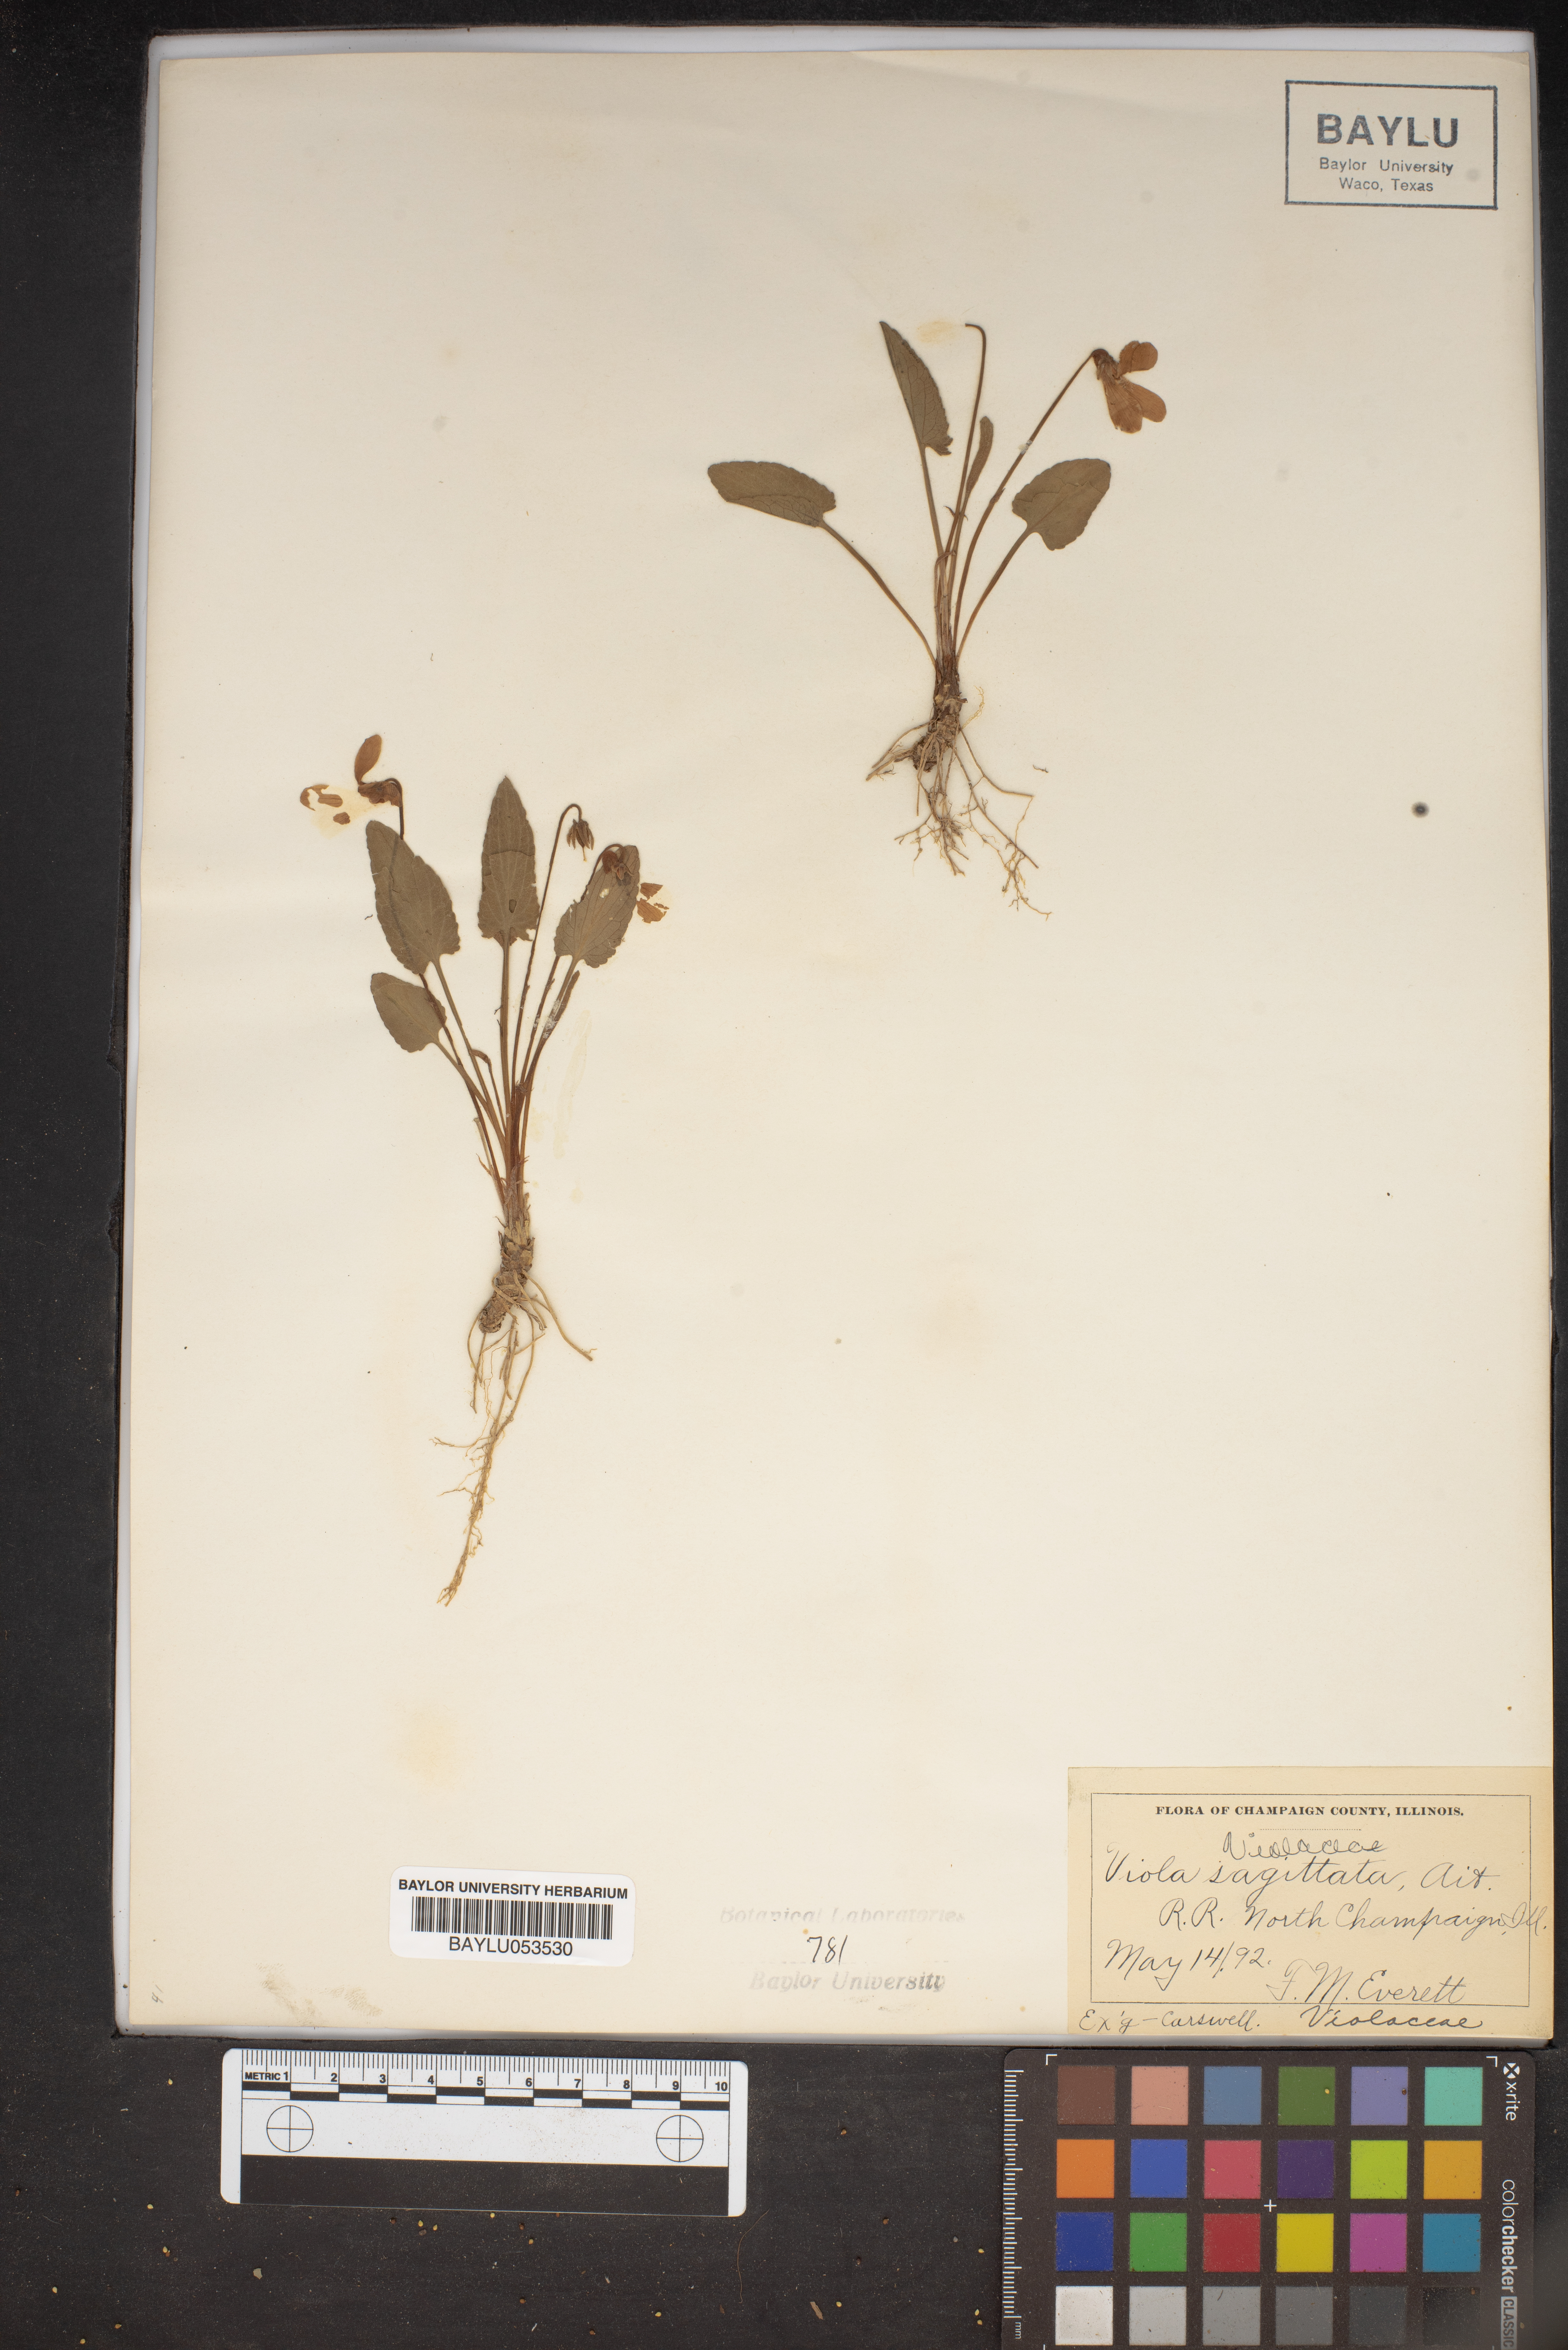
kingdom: Plantae
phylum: Tracheophyta
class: Magnoliopsida
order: Malpighiales
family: Violaceae
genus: Viola
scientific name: Viola sagittata
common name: Arrowhead violet
